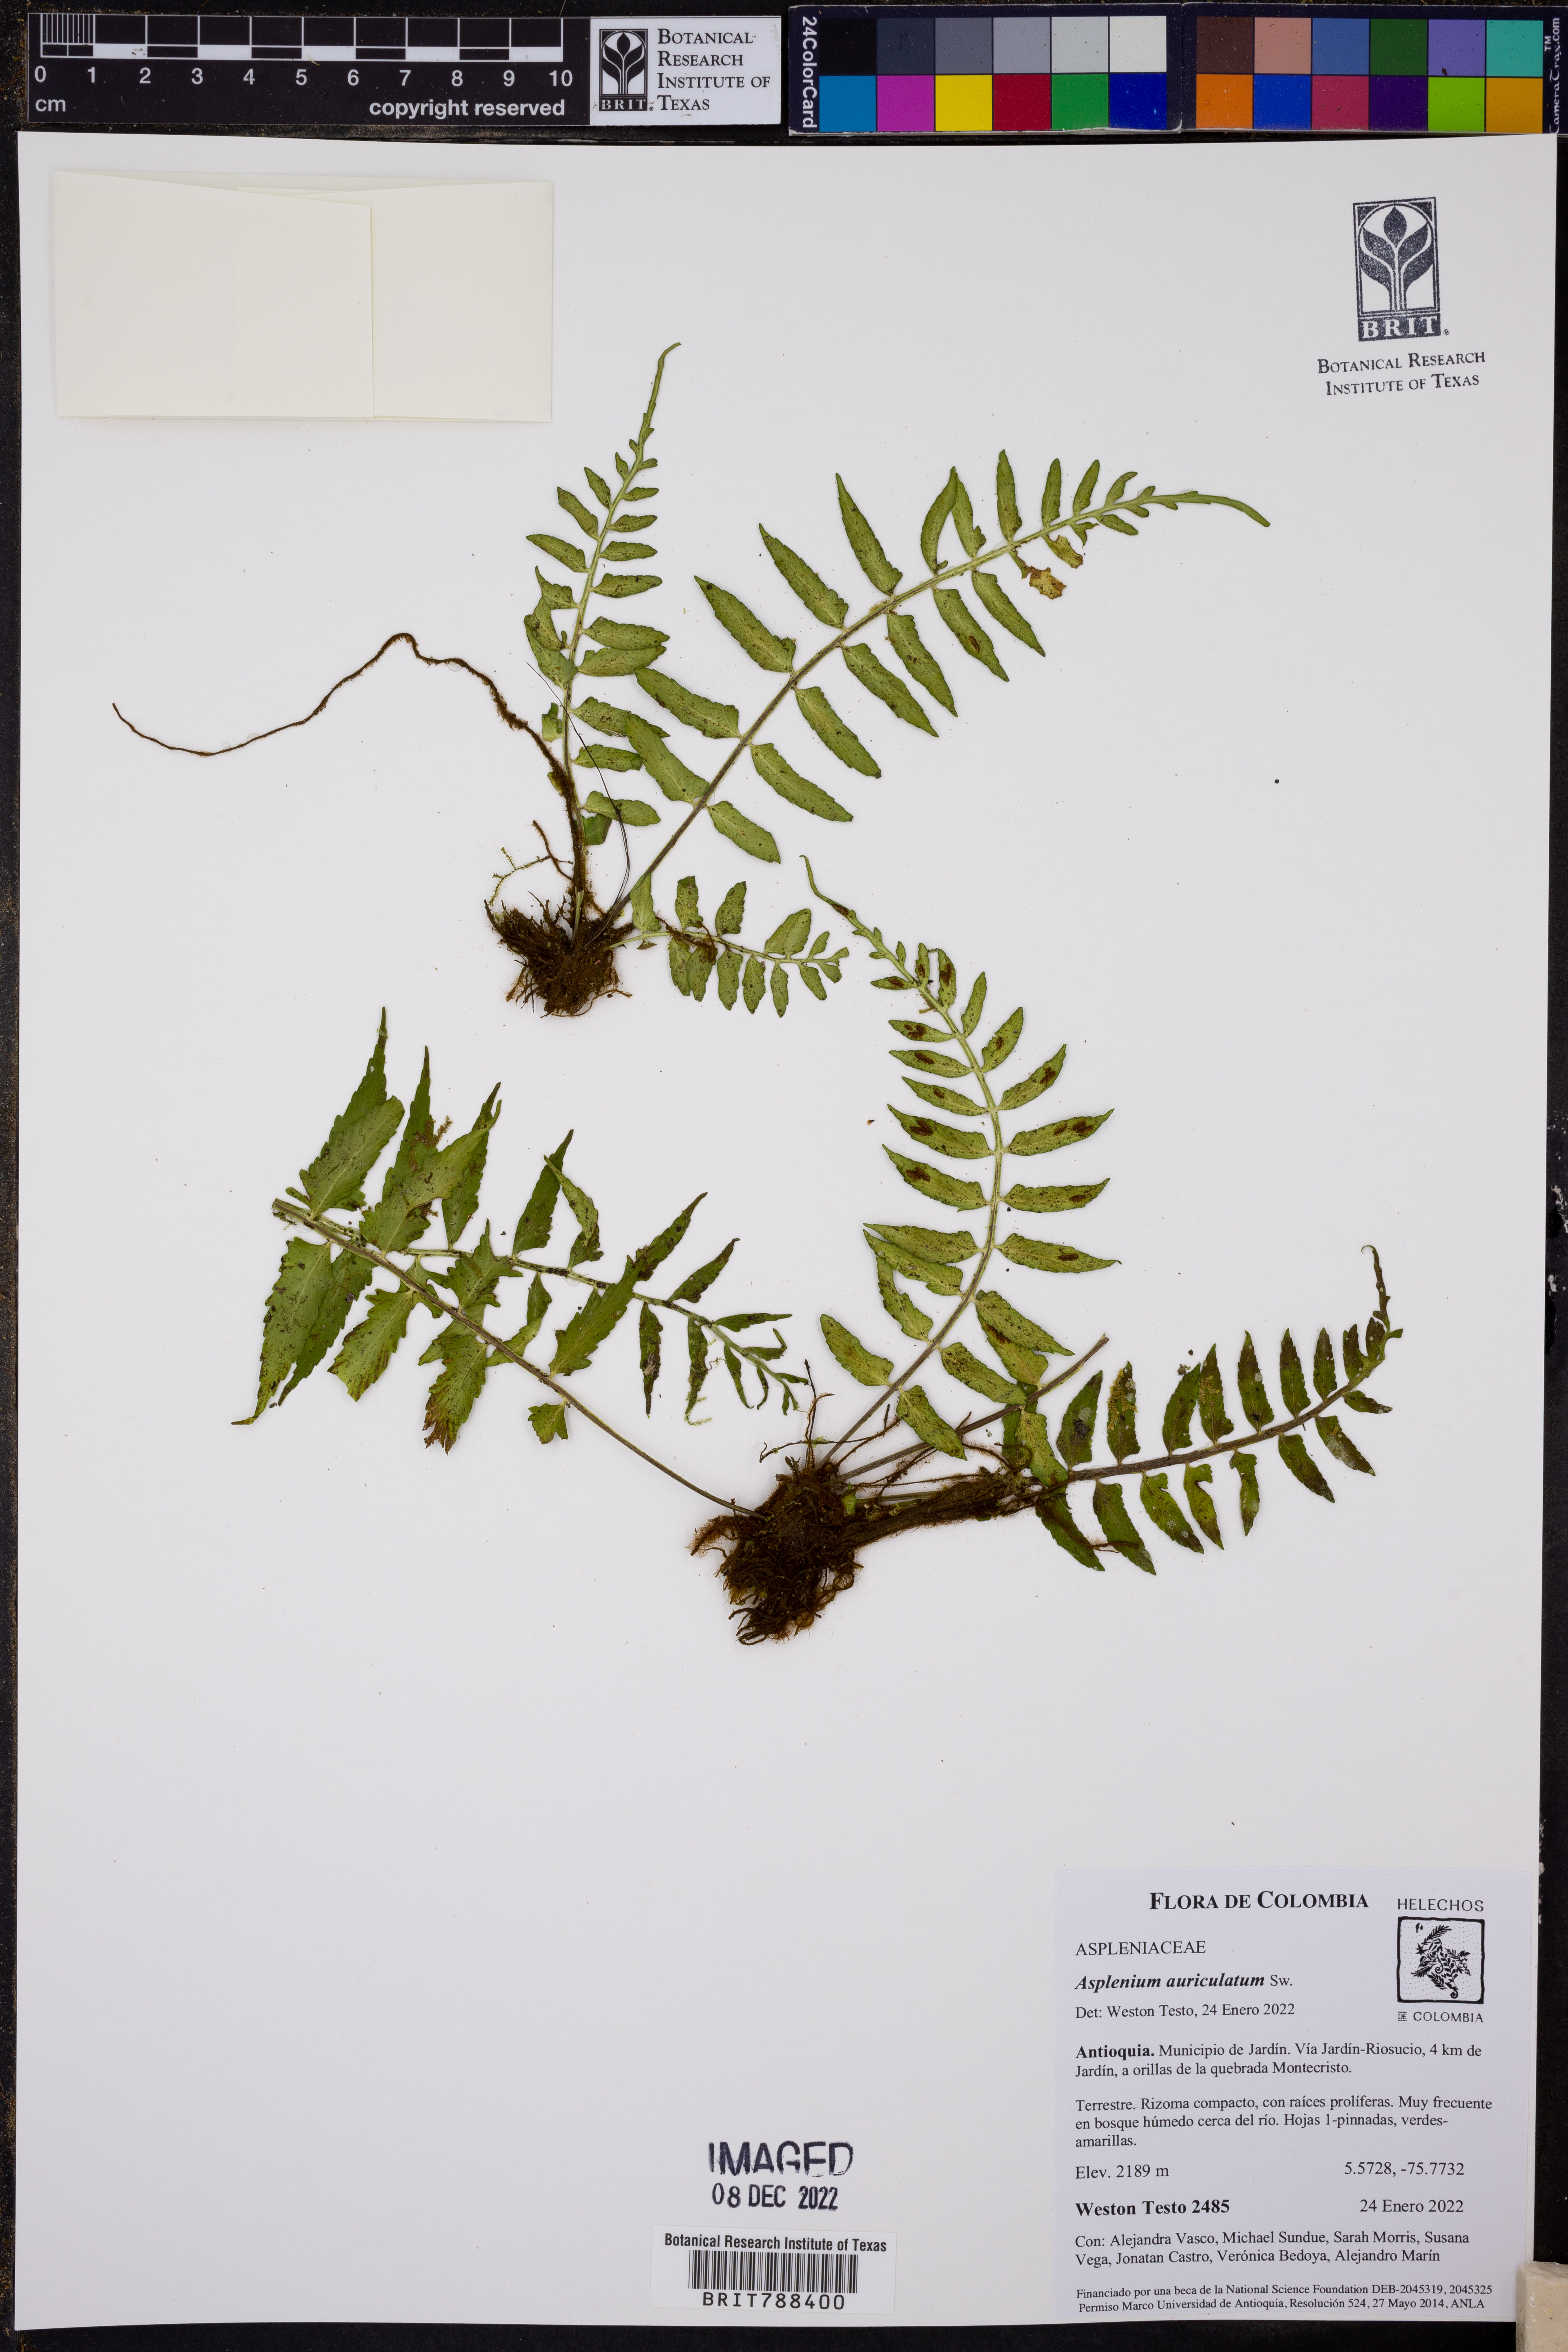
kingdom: Plantae
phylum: Tracheophyta
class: Polypodiopsida
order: Polypodiales
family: Aspleniaceae
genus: Asplenium
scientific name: Asplenium auriculatum
